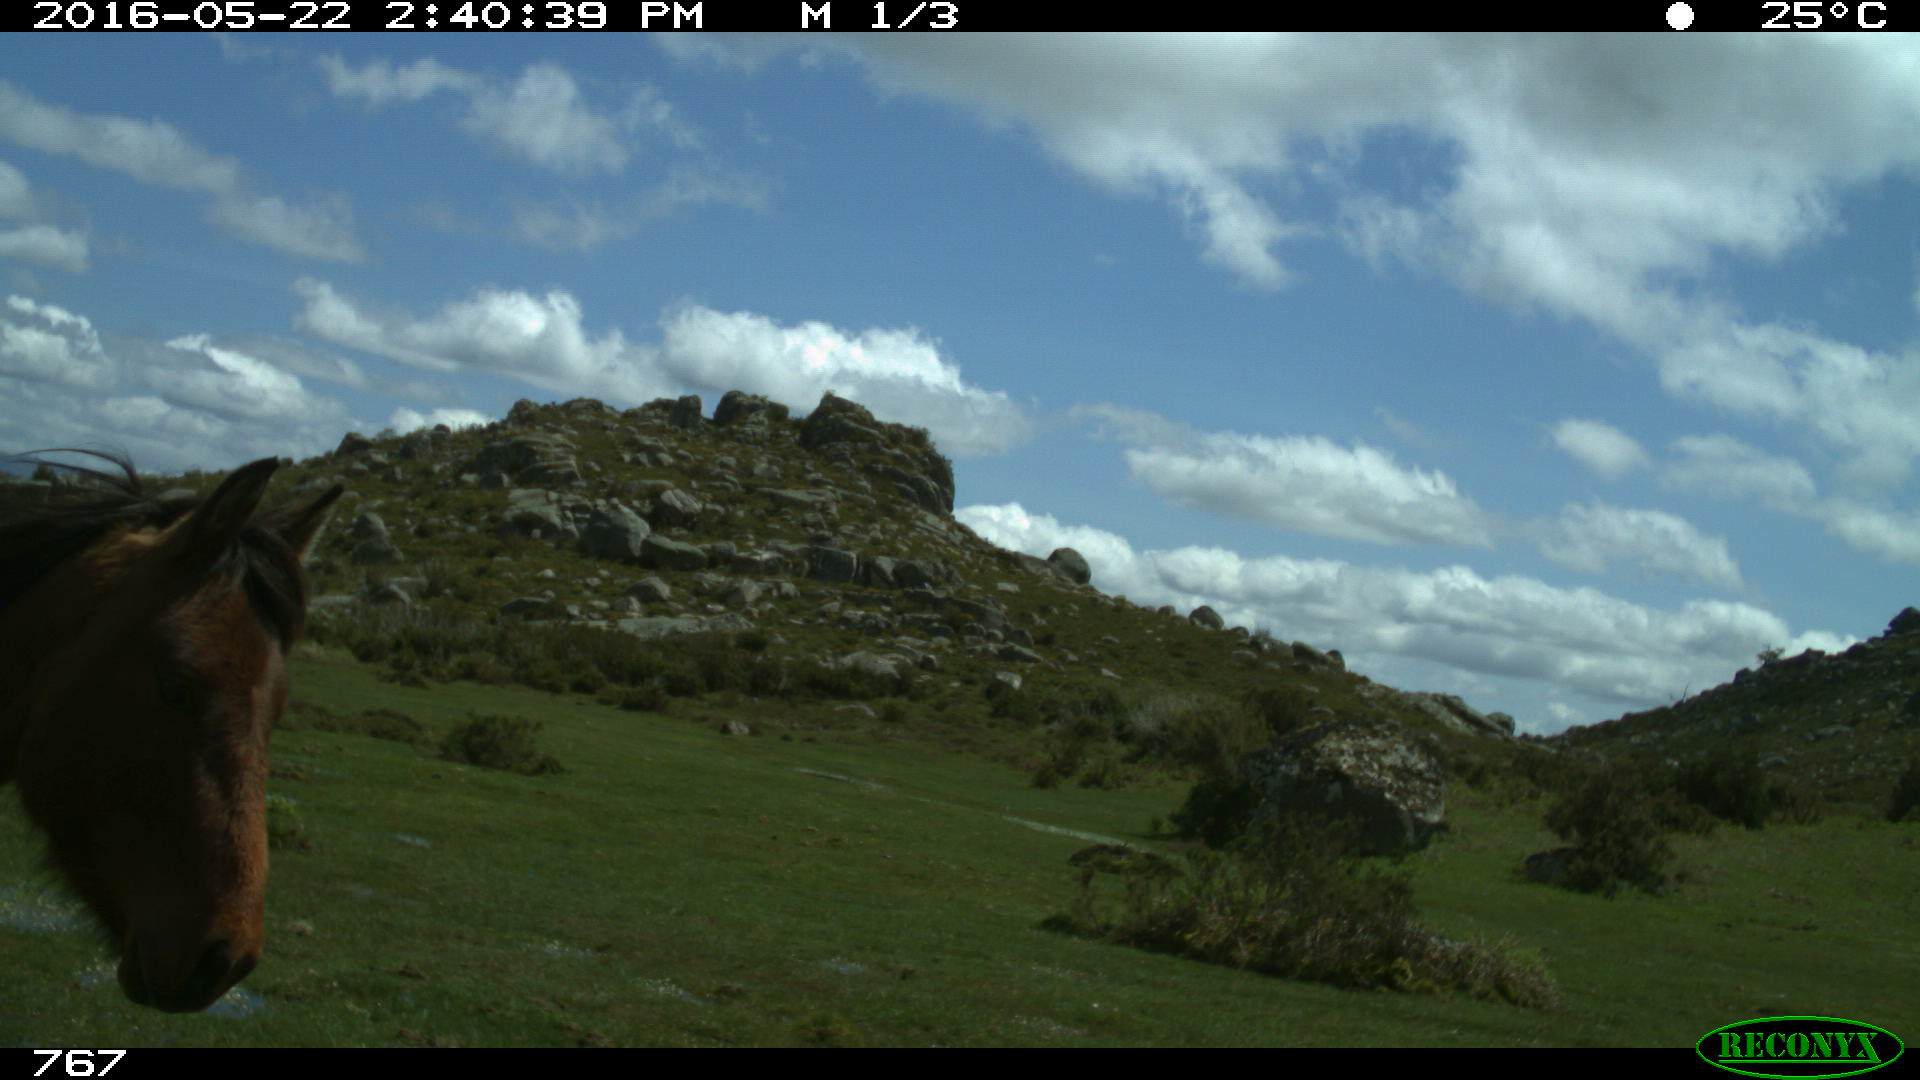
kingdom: Animalia
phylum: Chordata
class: Mammalia
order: Perissodactyla
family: Equidae
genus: Equus
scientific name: Equus caballus
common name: Horse
